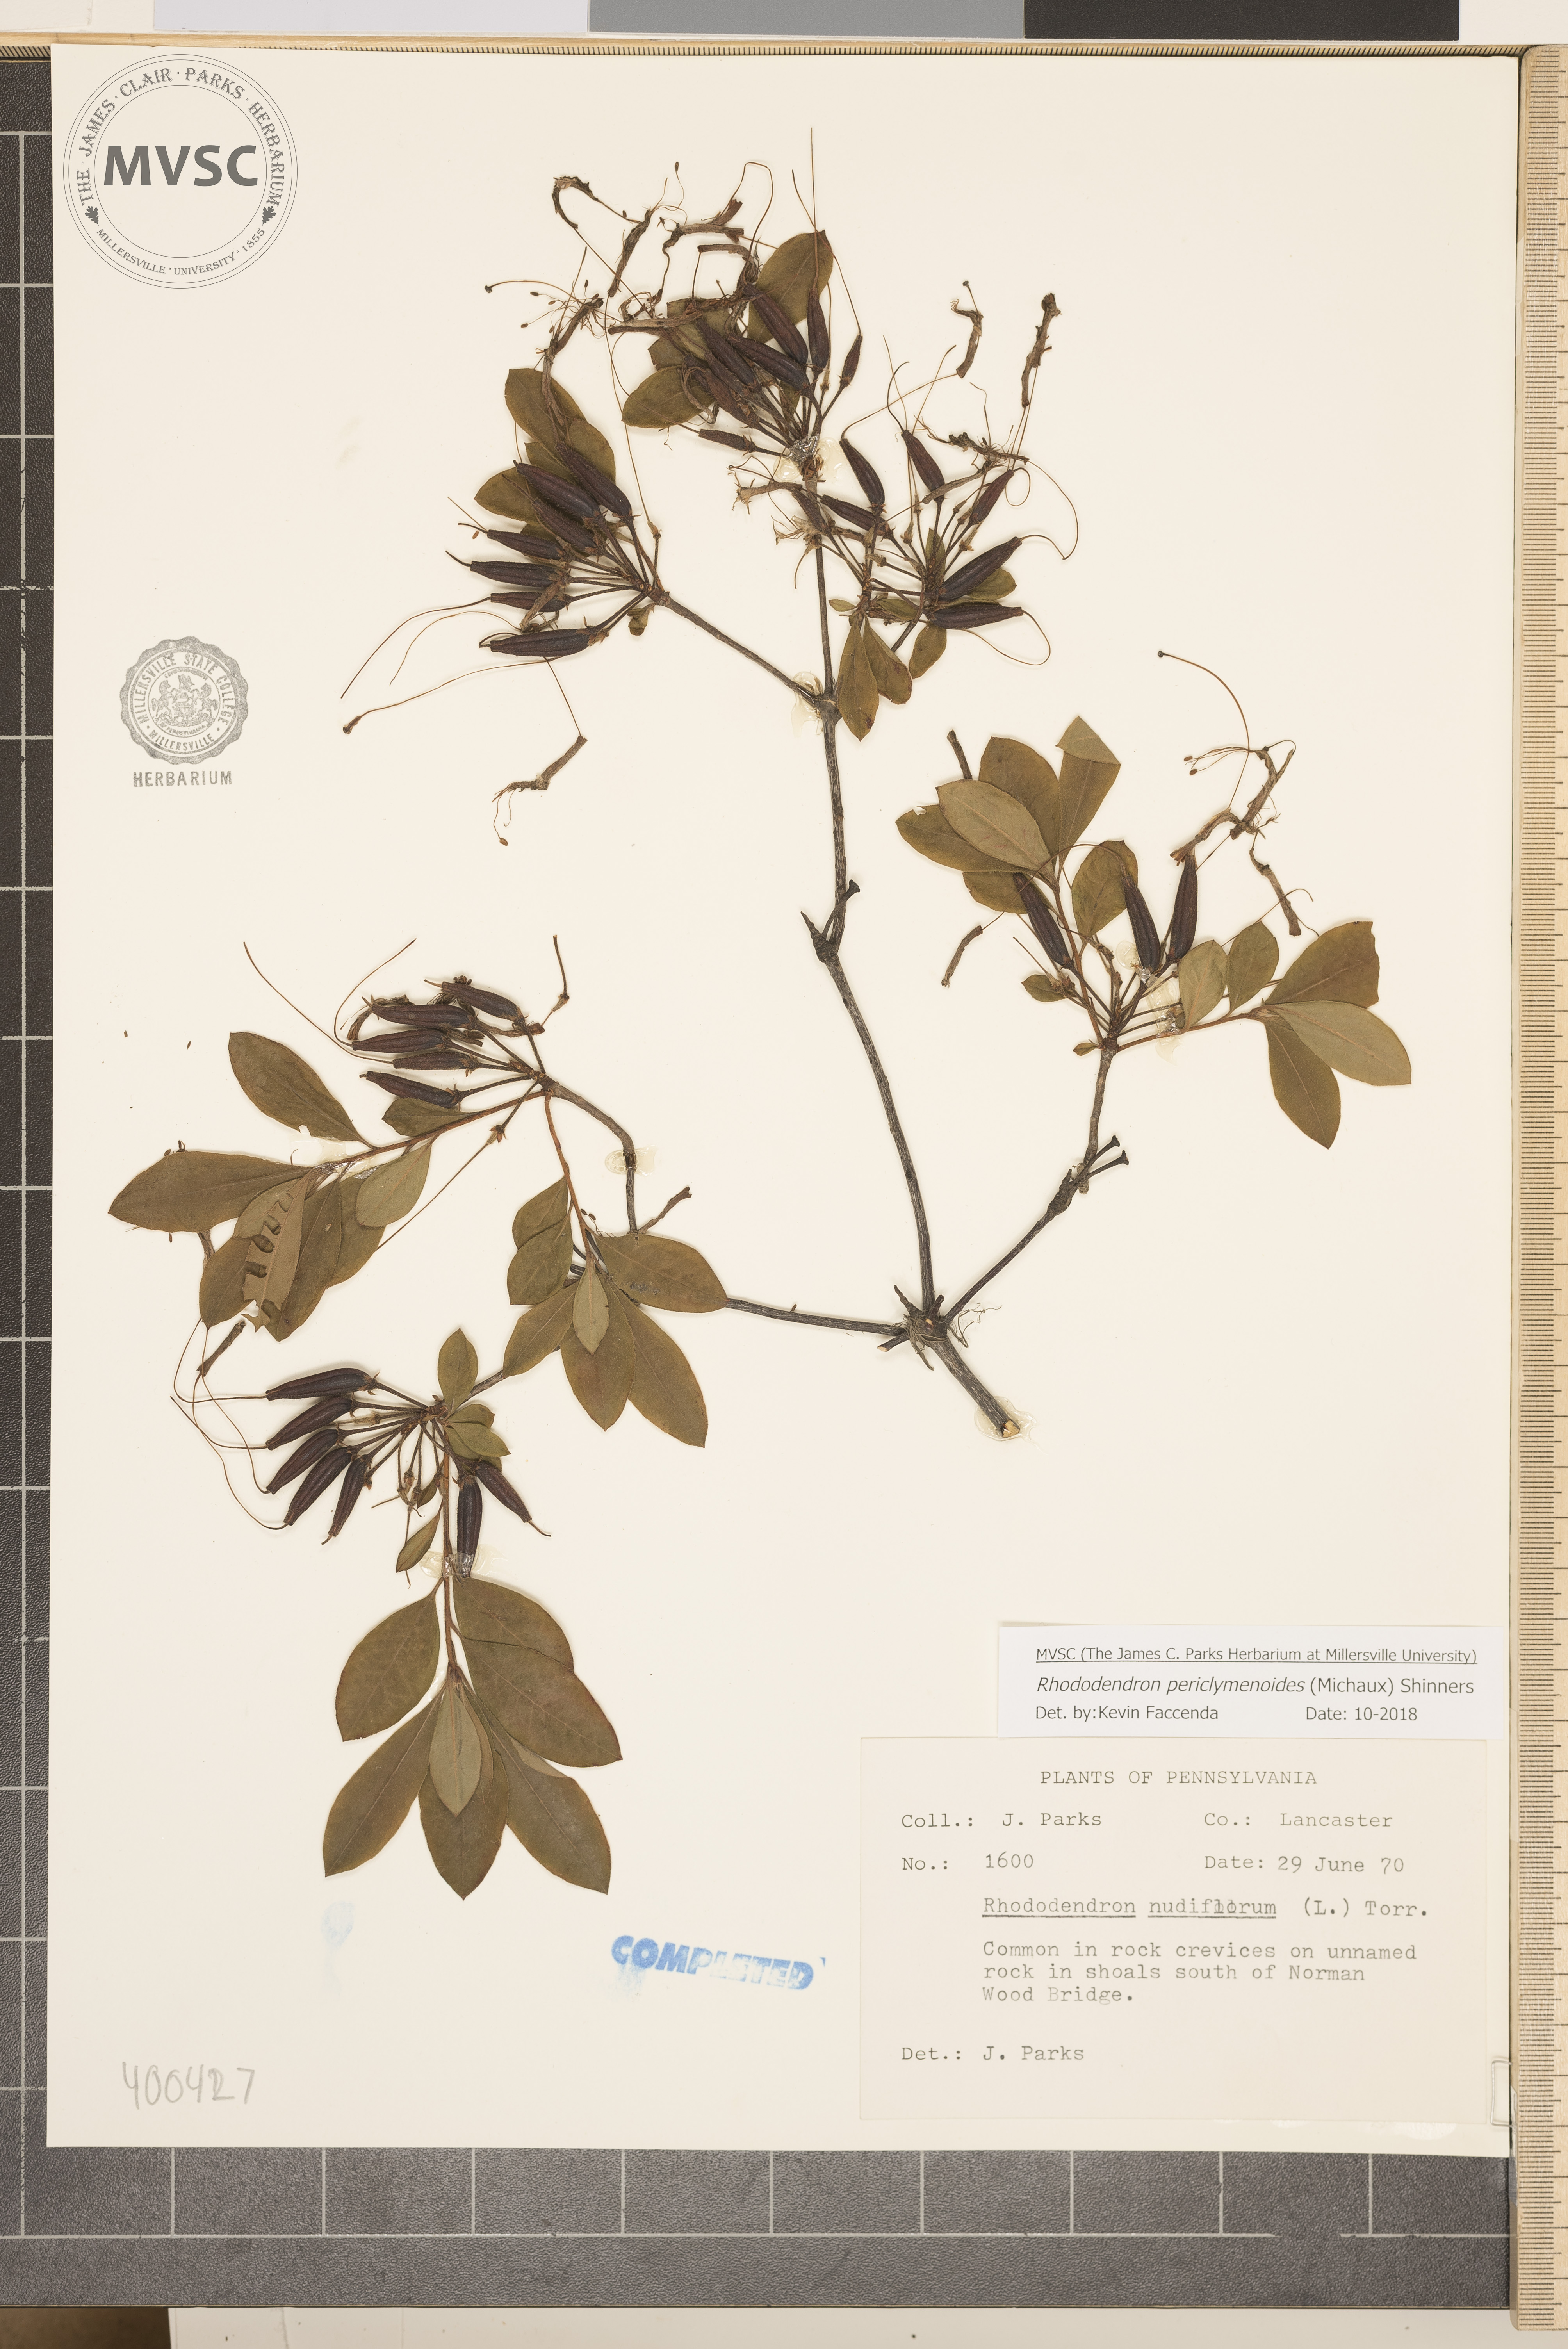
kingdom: Plantae
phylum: Tracheophyta
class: Magnoliopsida
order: Ericales
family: Ericaceae
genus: Rhododendron
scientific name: Rhododendron periclymenoides
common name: Election-pink
